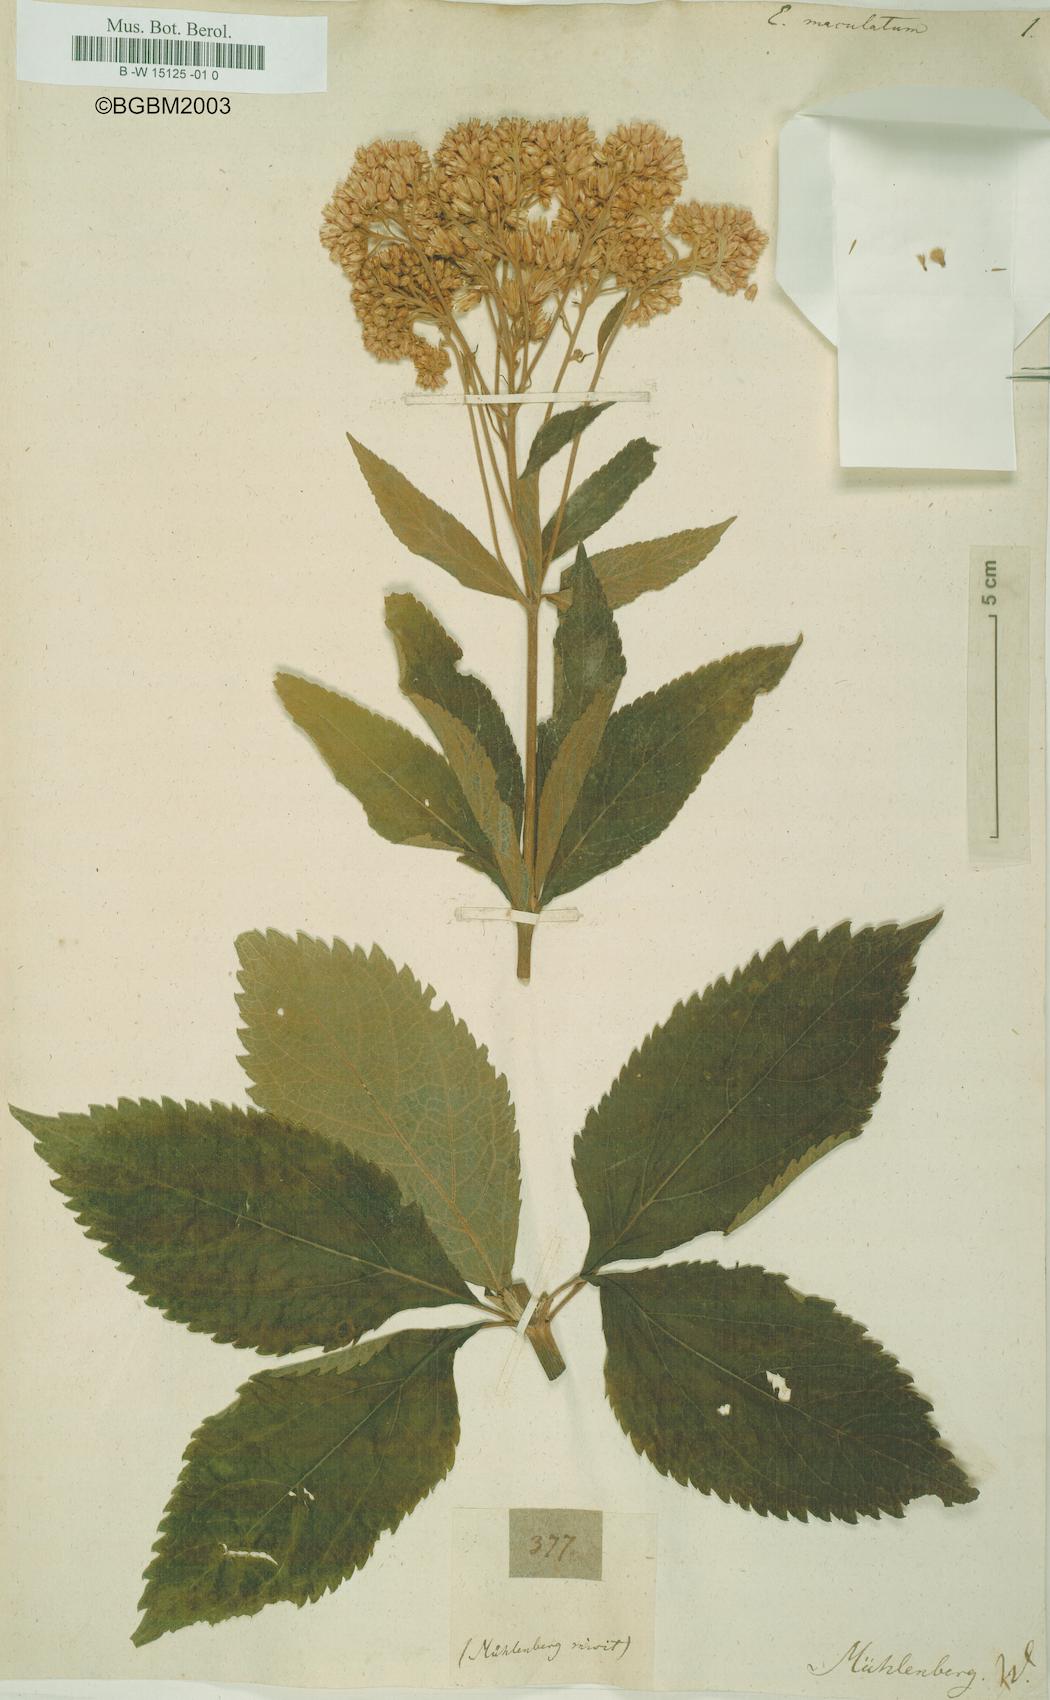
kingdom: Plantae
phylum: Tracheophyta
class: Magnoliopsida
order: Asterales
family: Asteraceae
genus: Eutrochium
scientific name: Eutrochium maculatum
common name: Spotted joe pye weed
